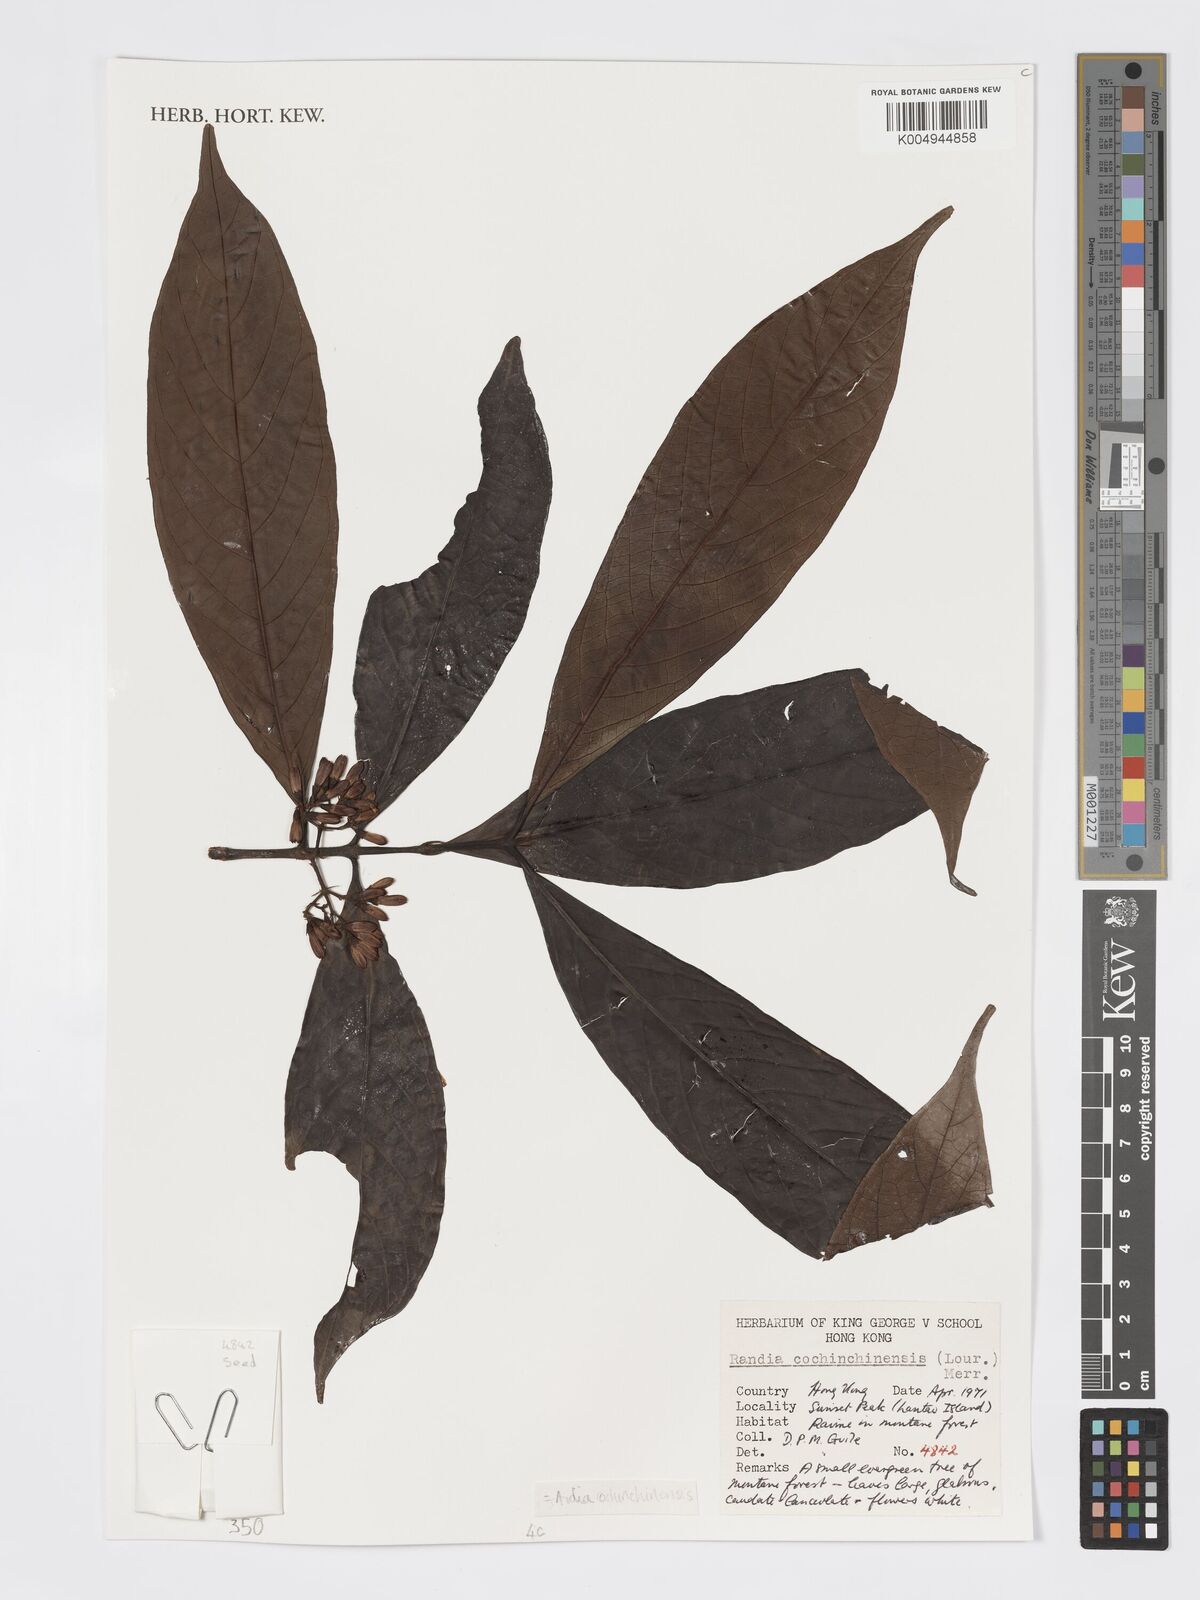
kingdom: Plantae
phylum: Tracheophyta
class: Magnoliopsida
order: Gentianales
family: Rubiaceae
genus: Aidia
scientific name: Aidia canthioides
